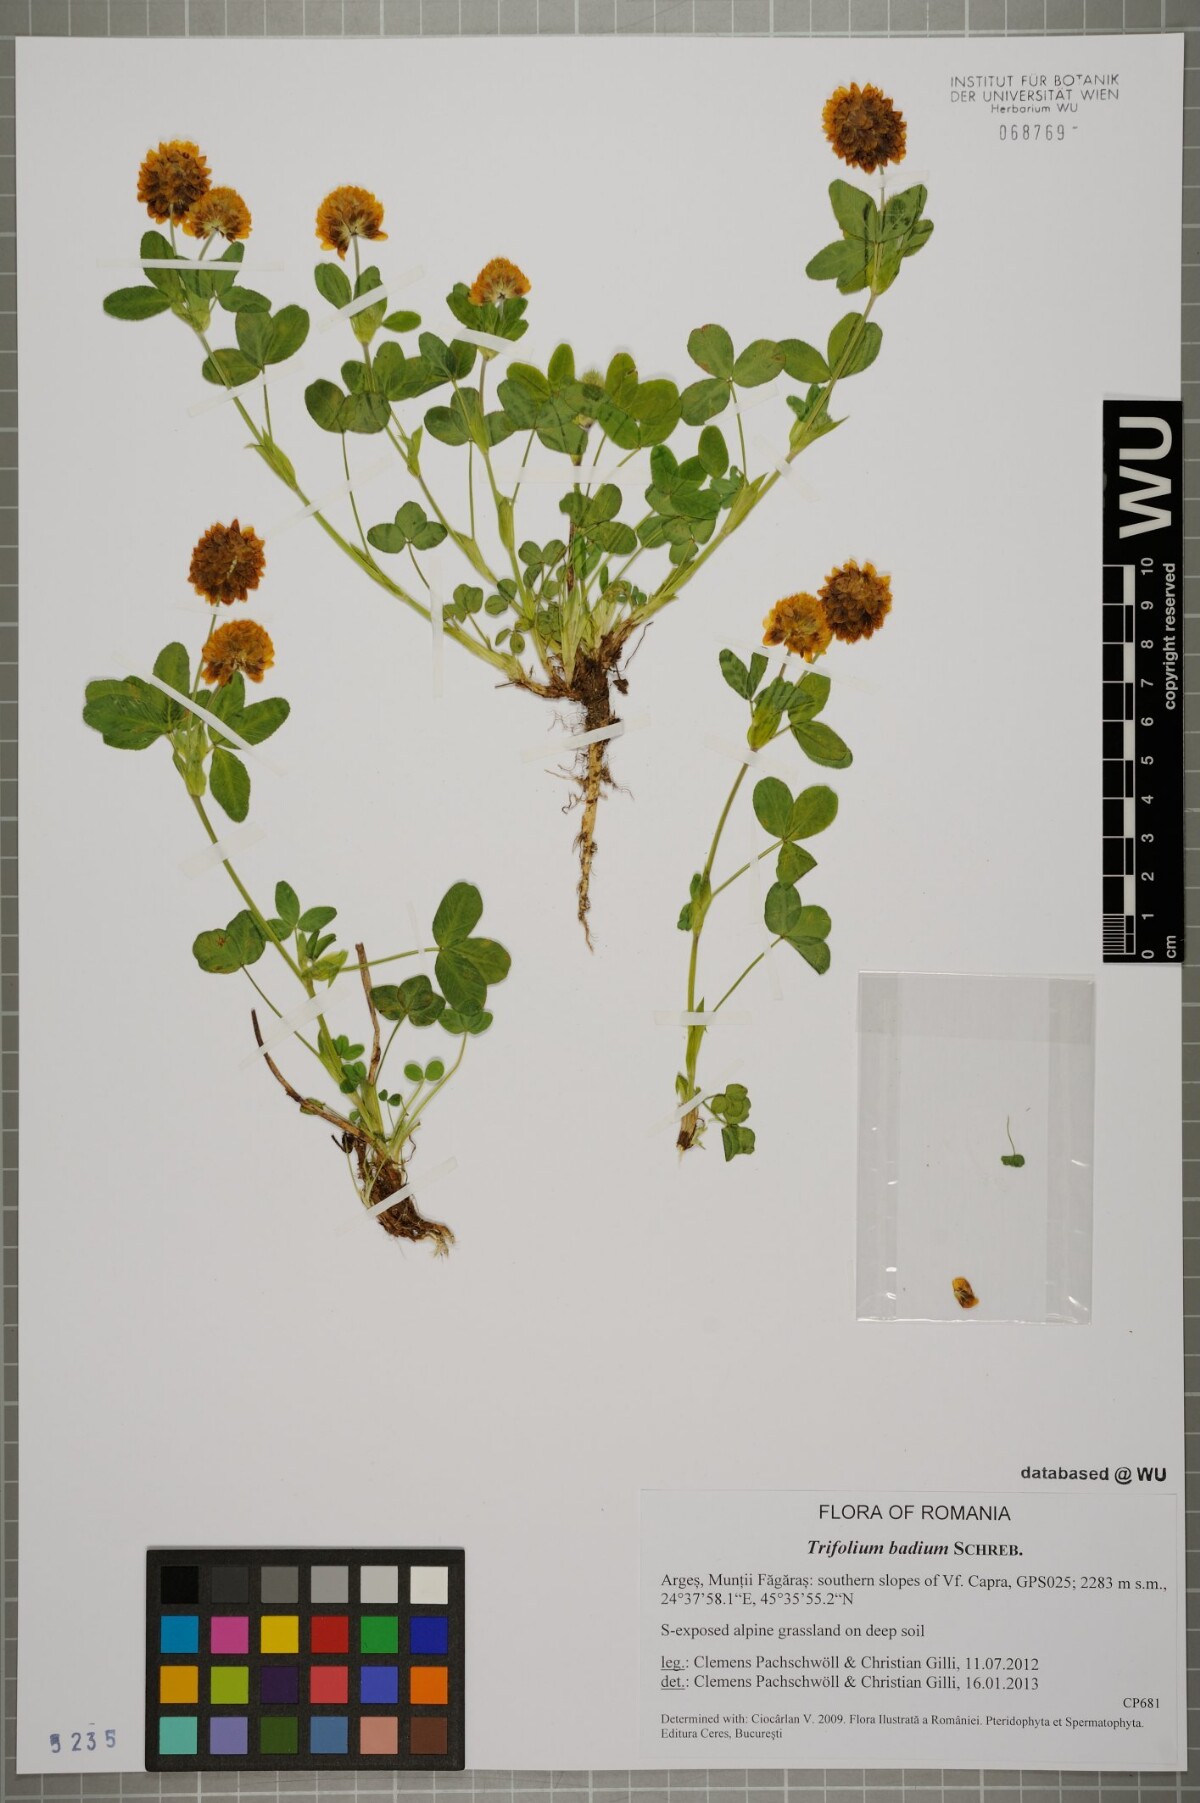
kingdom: Plantae
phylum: Tracheophyta
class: Magnoliopsida
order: Fabales
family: Fabaceae
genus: Trifolium
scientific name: Trifolium badium
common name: Brown clover
